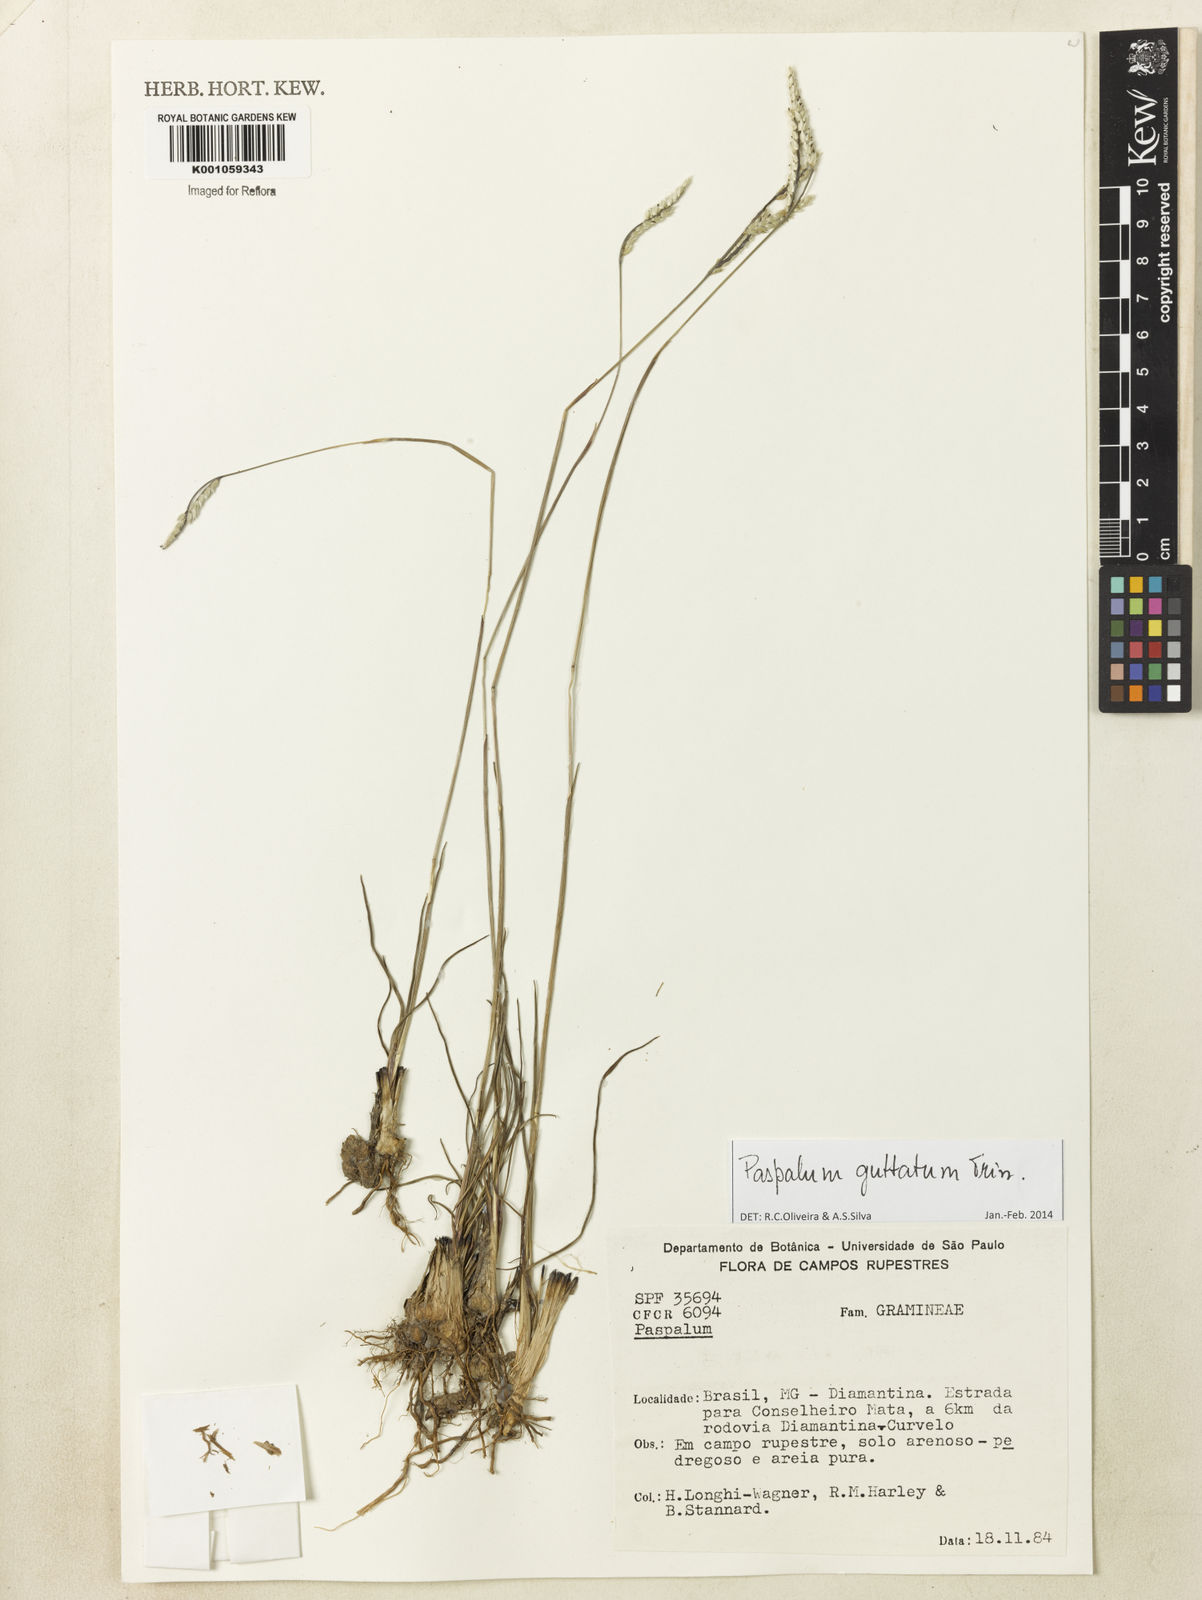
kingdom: Plantae
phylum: Tracheophyta
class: Liliopsida
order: Poales
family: Poaceae
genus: Paspalum
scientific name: Paspalum guttatum
